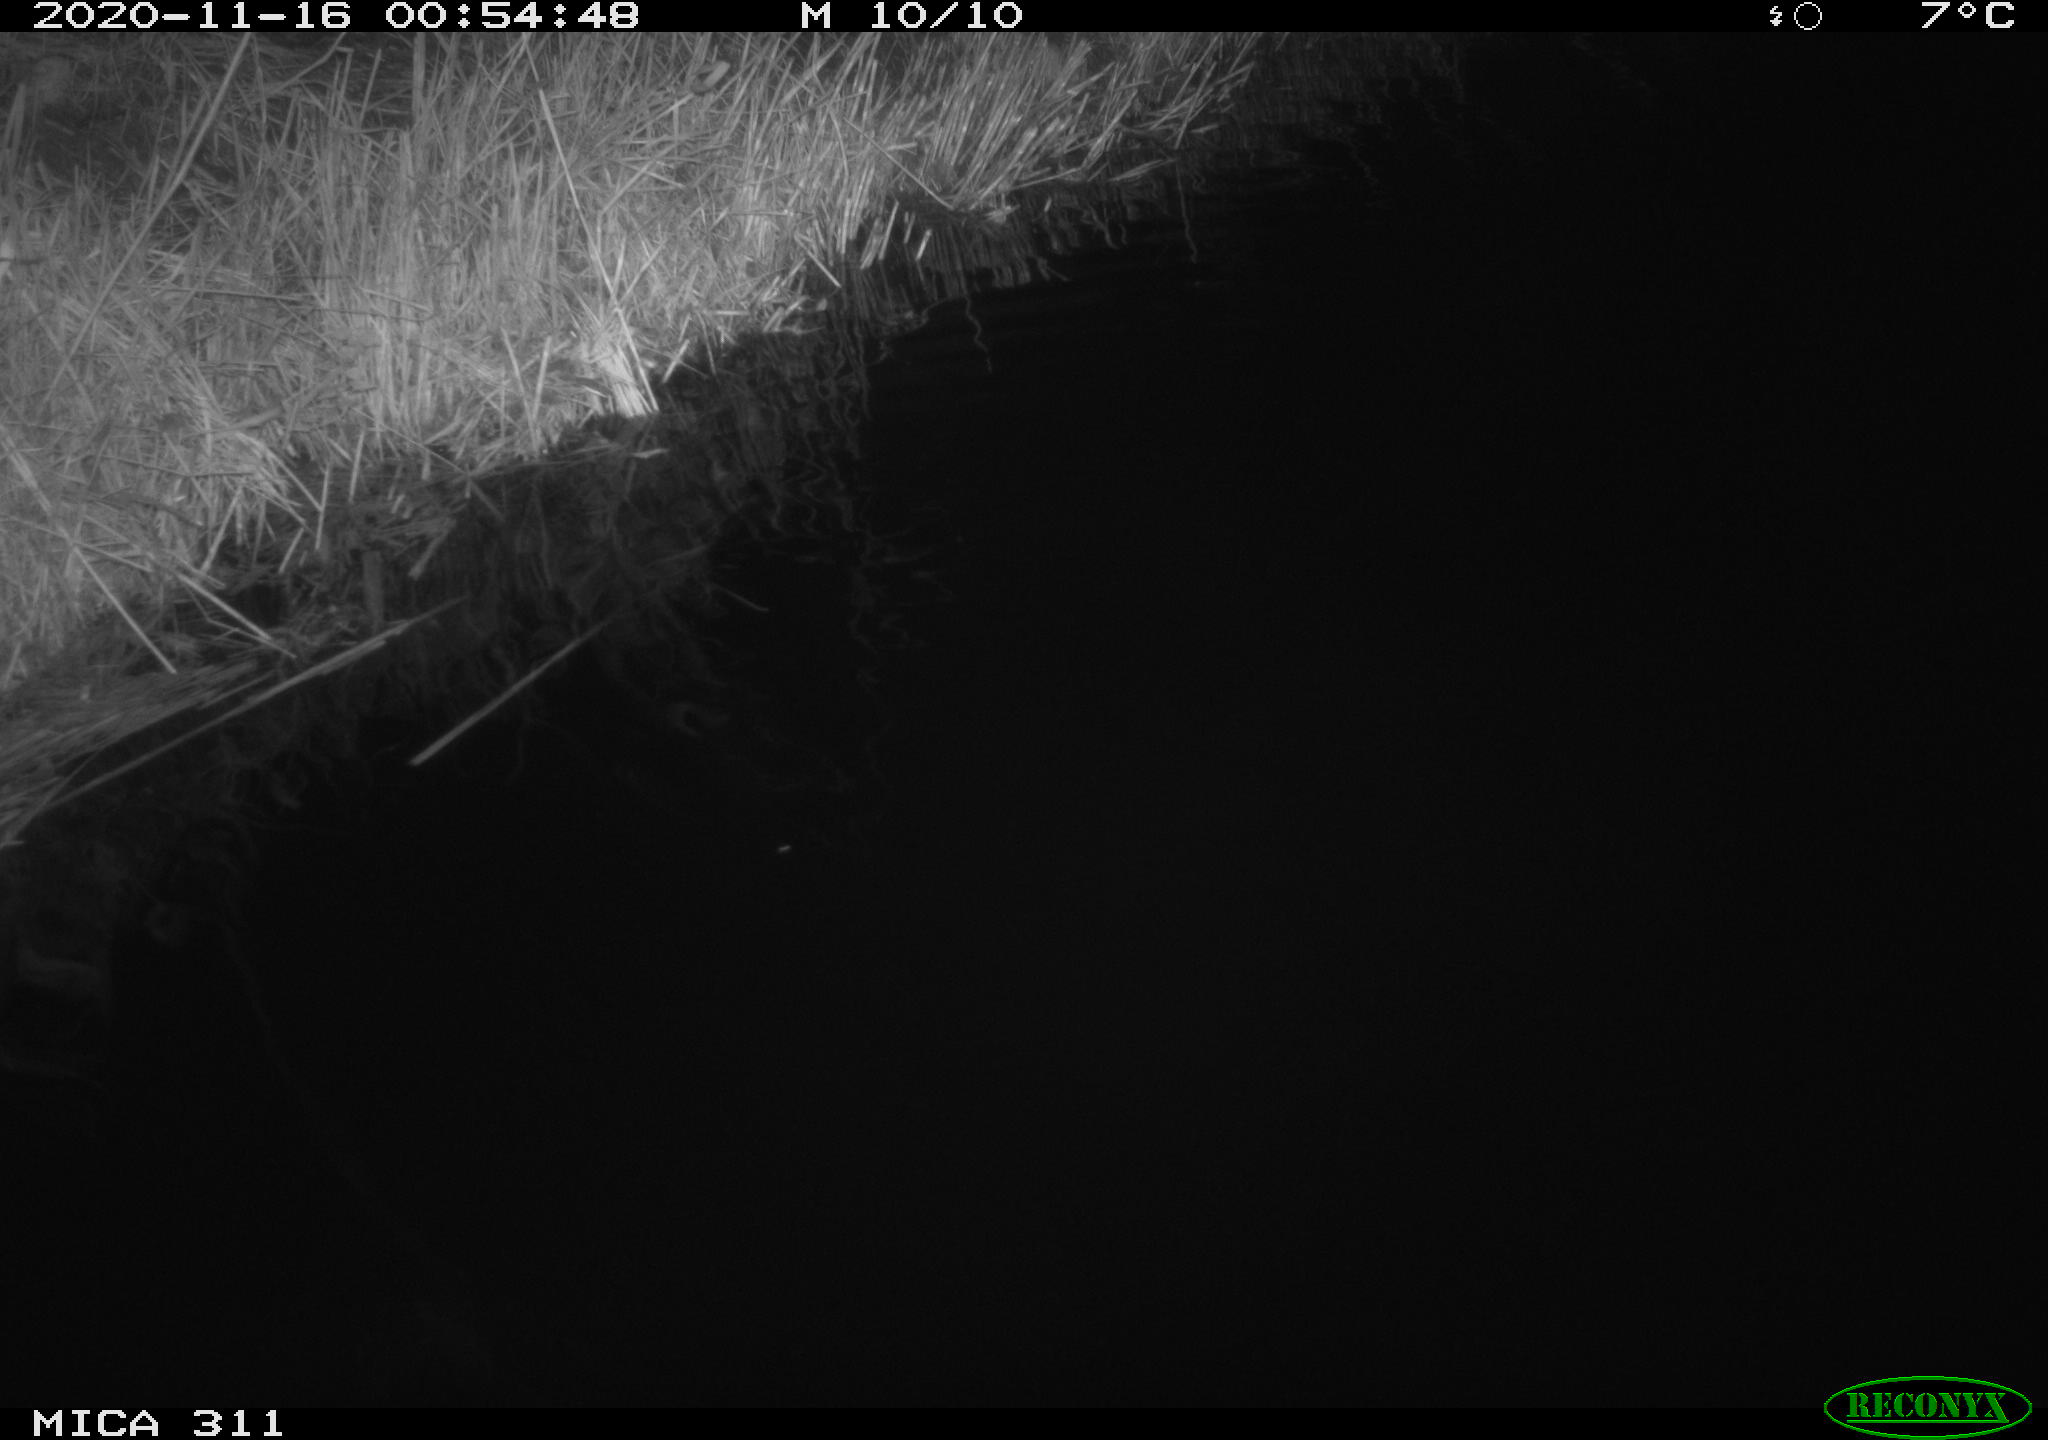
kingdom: Animalia
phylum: Chordata
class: Mammalia
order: Rodentia
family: Muridae
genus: Rattus
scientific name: Rattus norvegicus
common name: Brown rat
